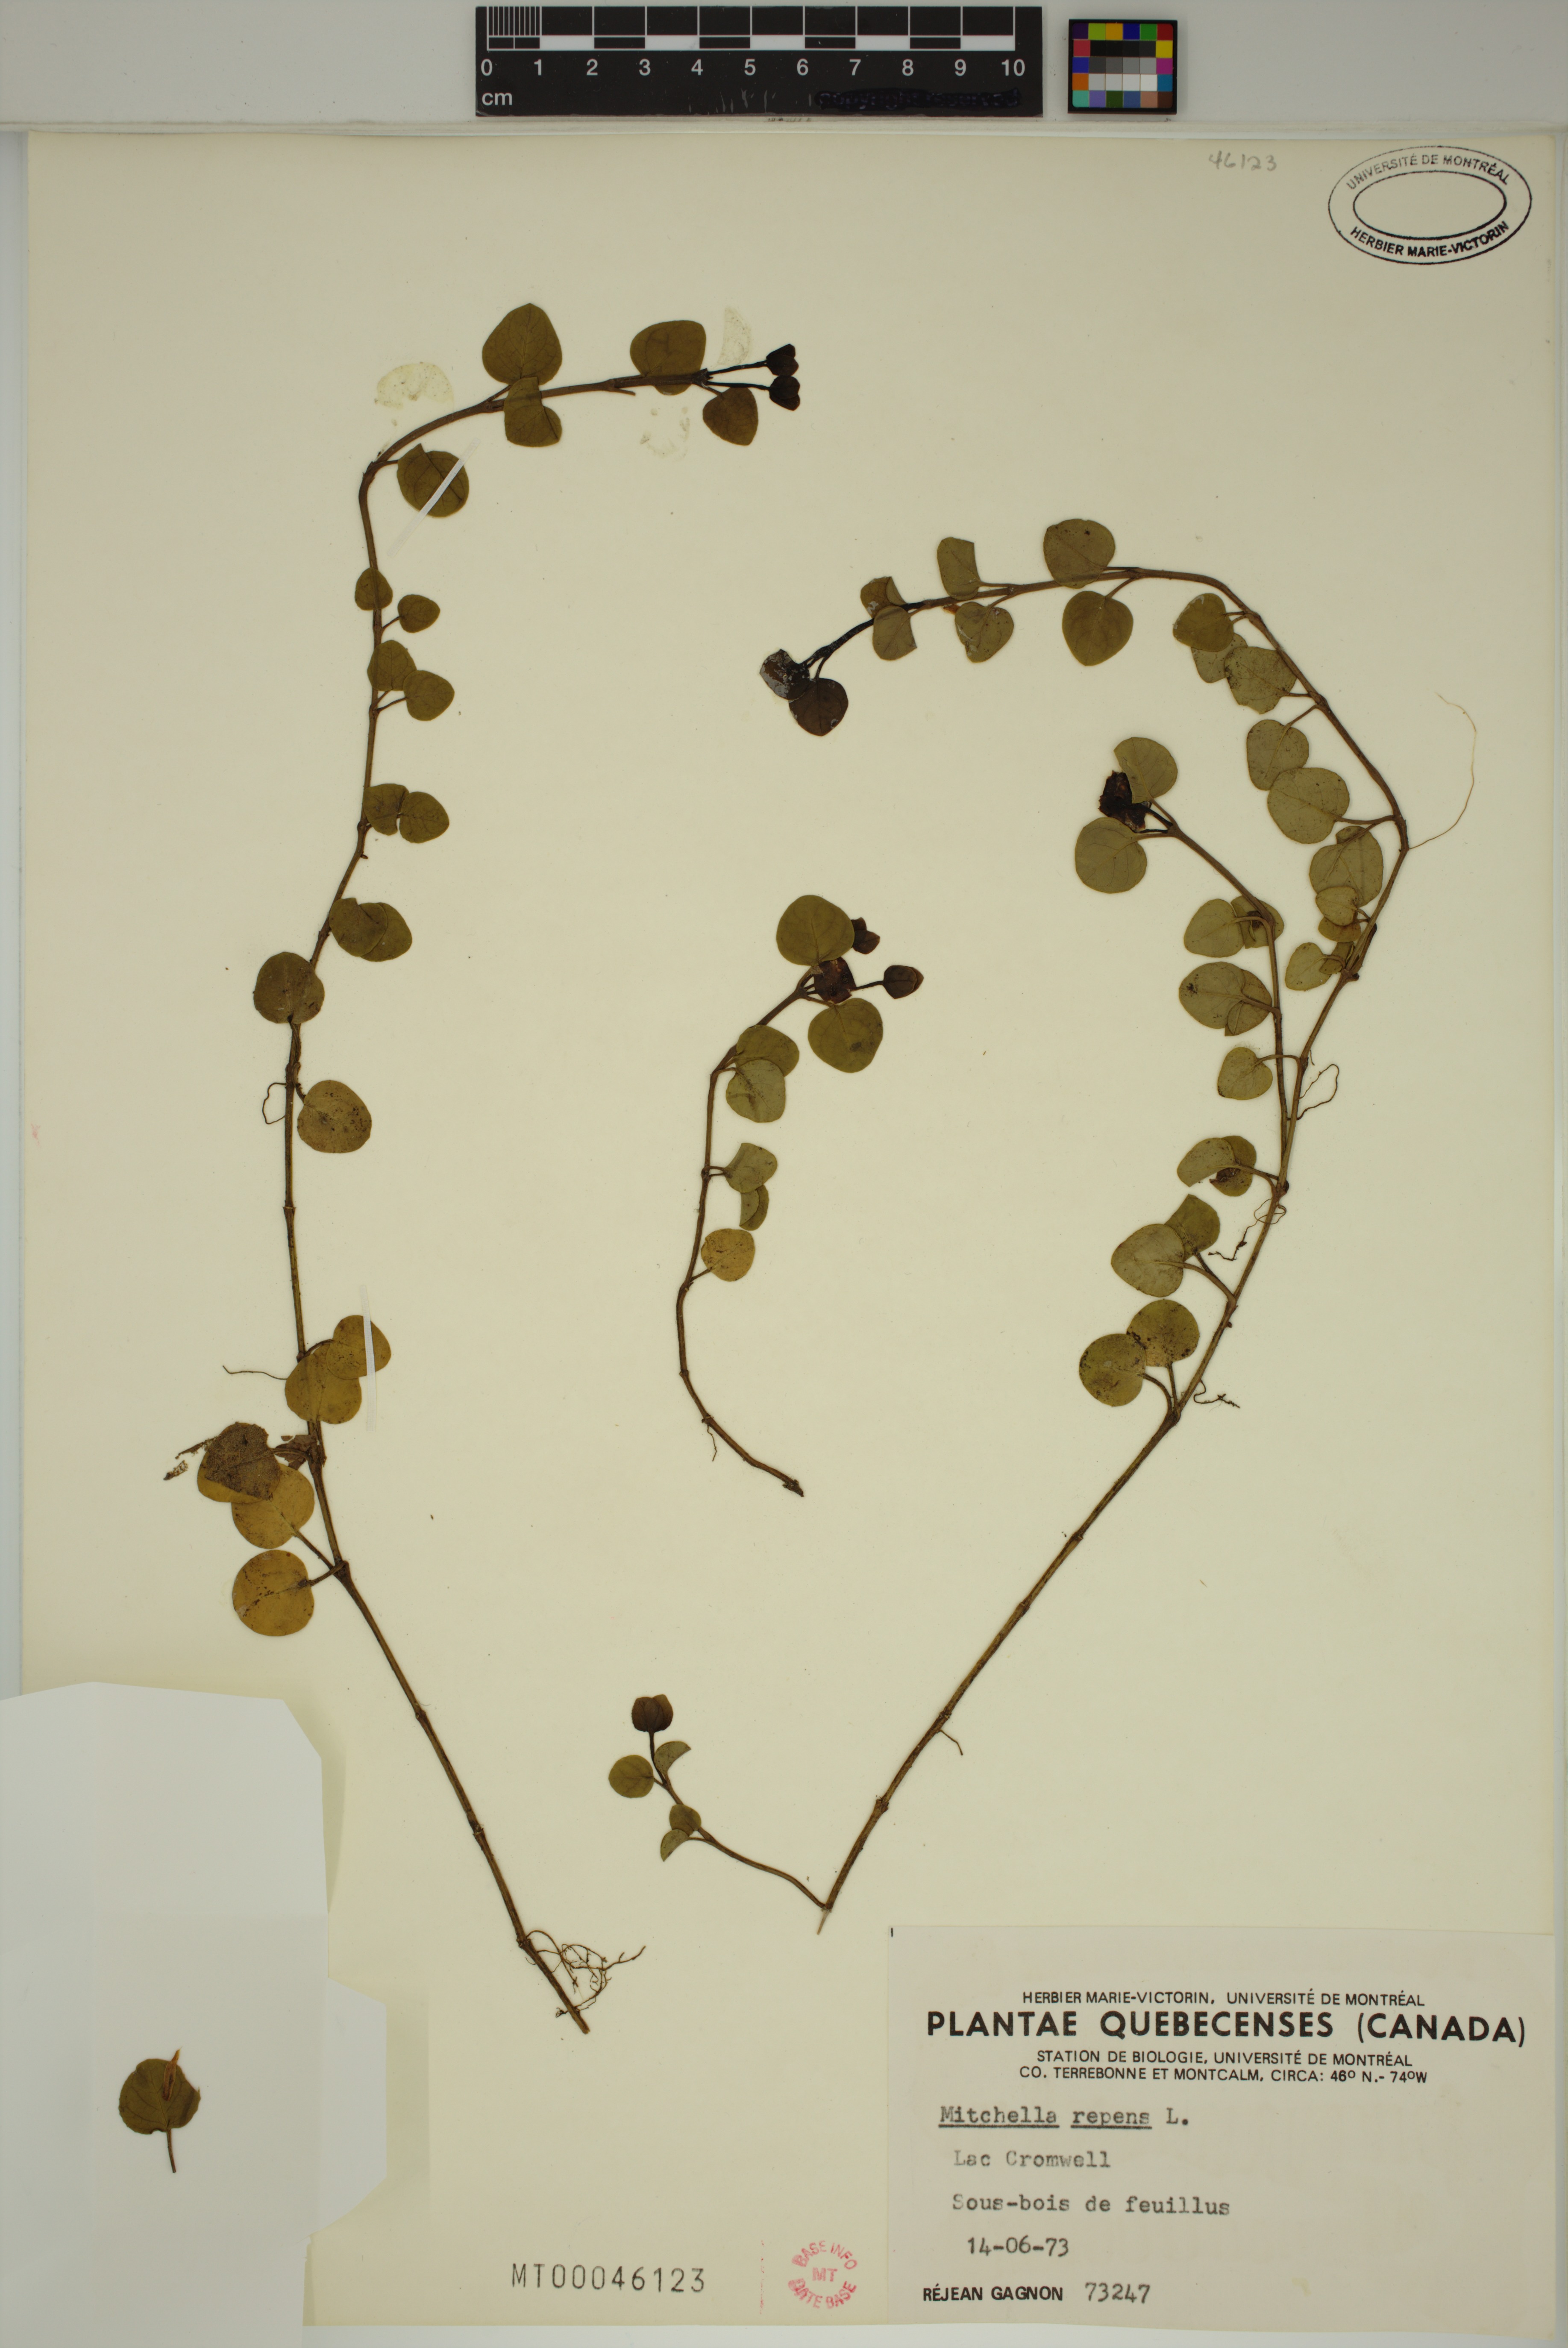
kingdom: Plantae
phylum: Tracheophyta
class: Magnoliopsida
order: Gentianales
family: Rubiaceae
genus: Mitchella
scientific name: Mitchella repens
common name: Partridge-berry
